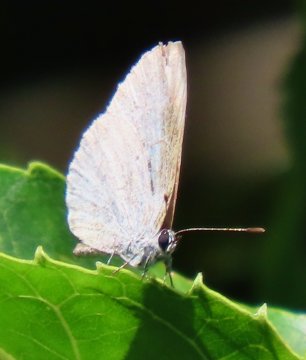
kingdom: Animalia
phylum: Arthropoda
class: Insecta
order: Lepidoptera
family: Lycaenidae
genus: Cyaniris
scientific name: Cyaniris neglecta
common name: Summer Azure
